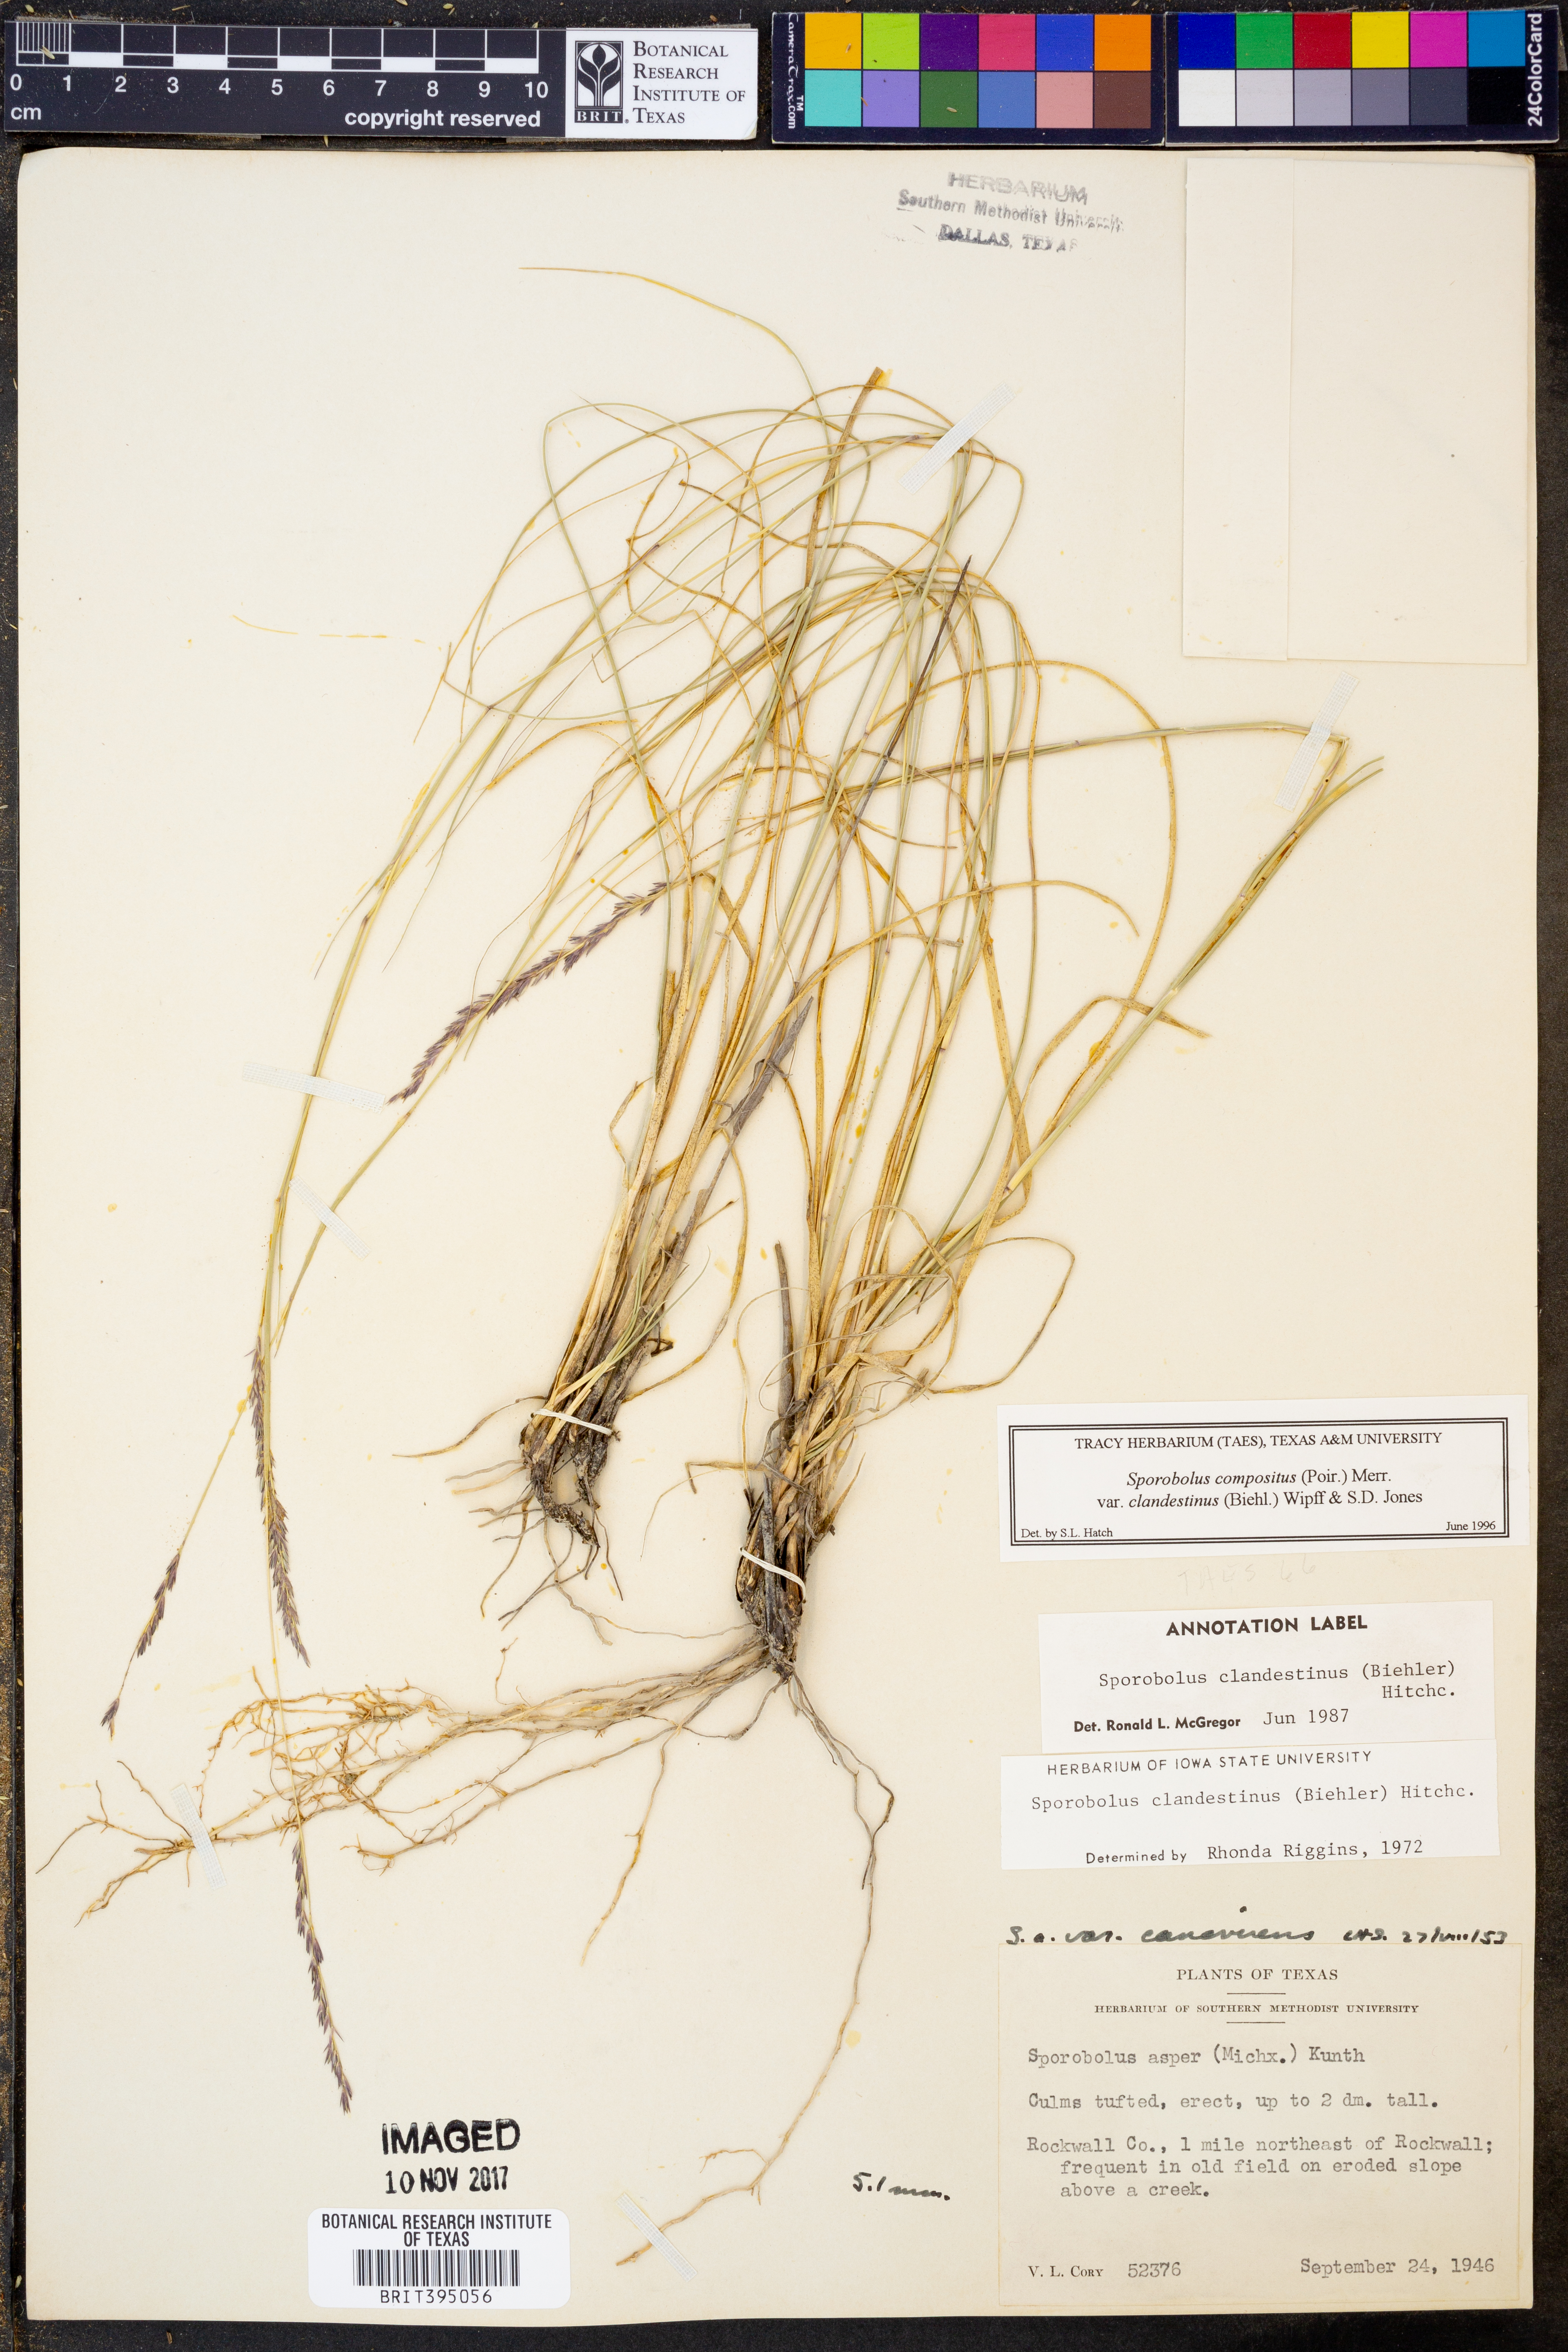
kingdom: Plantae
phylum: Tracheophyta
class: Liliopsida
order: Poales
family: Poaceae
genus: Sporobolus
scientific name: Sporobolus clandestinus
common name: Hidden dropseed
